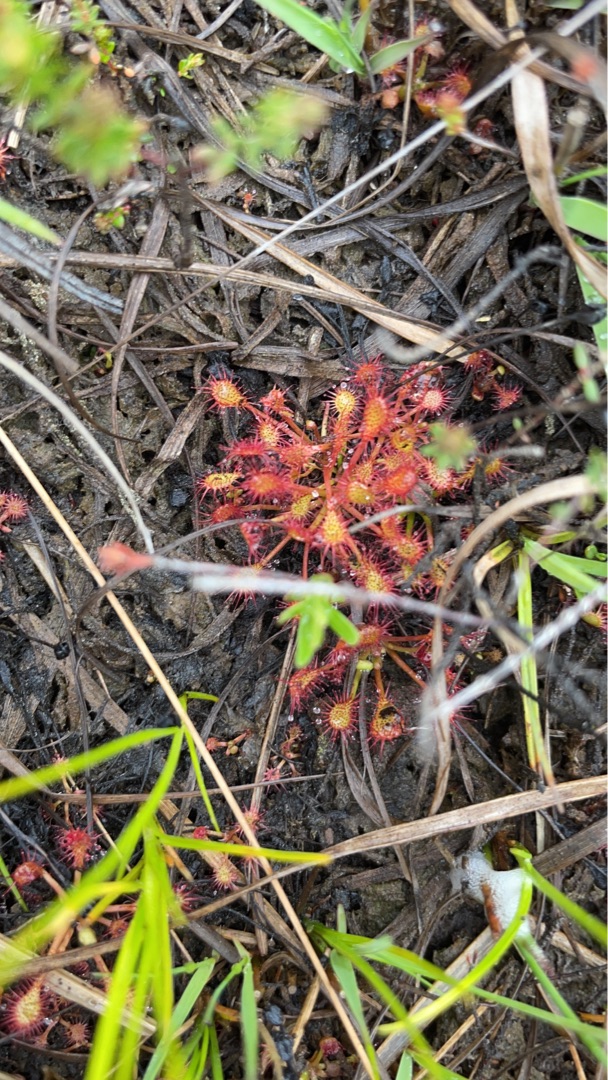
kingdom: Plantae
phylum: Tracheophyta
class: Magnoliopsida
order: Caryophyllales
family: Droseraceae
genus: Drosera
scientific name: Drosera intermedia
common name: Liden soldug
